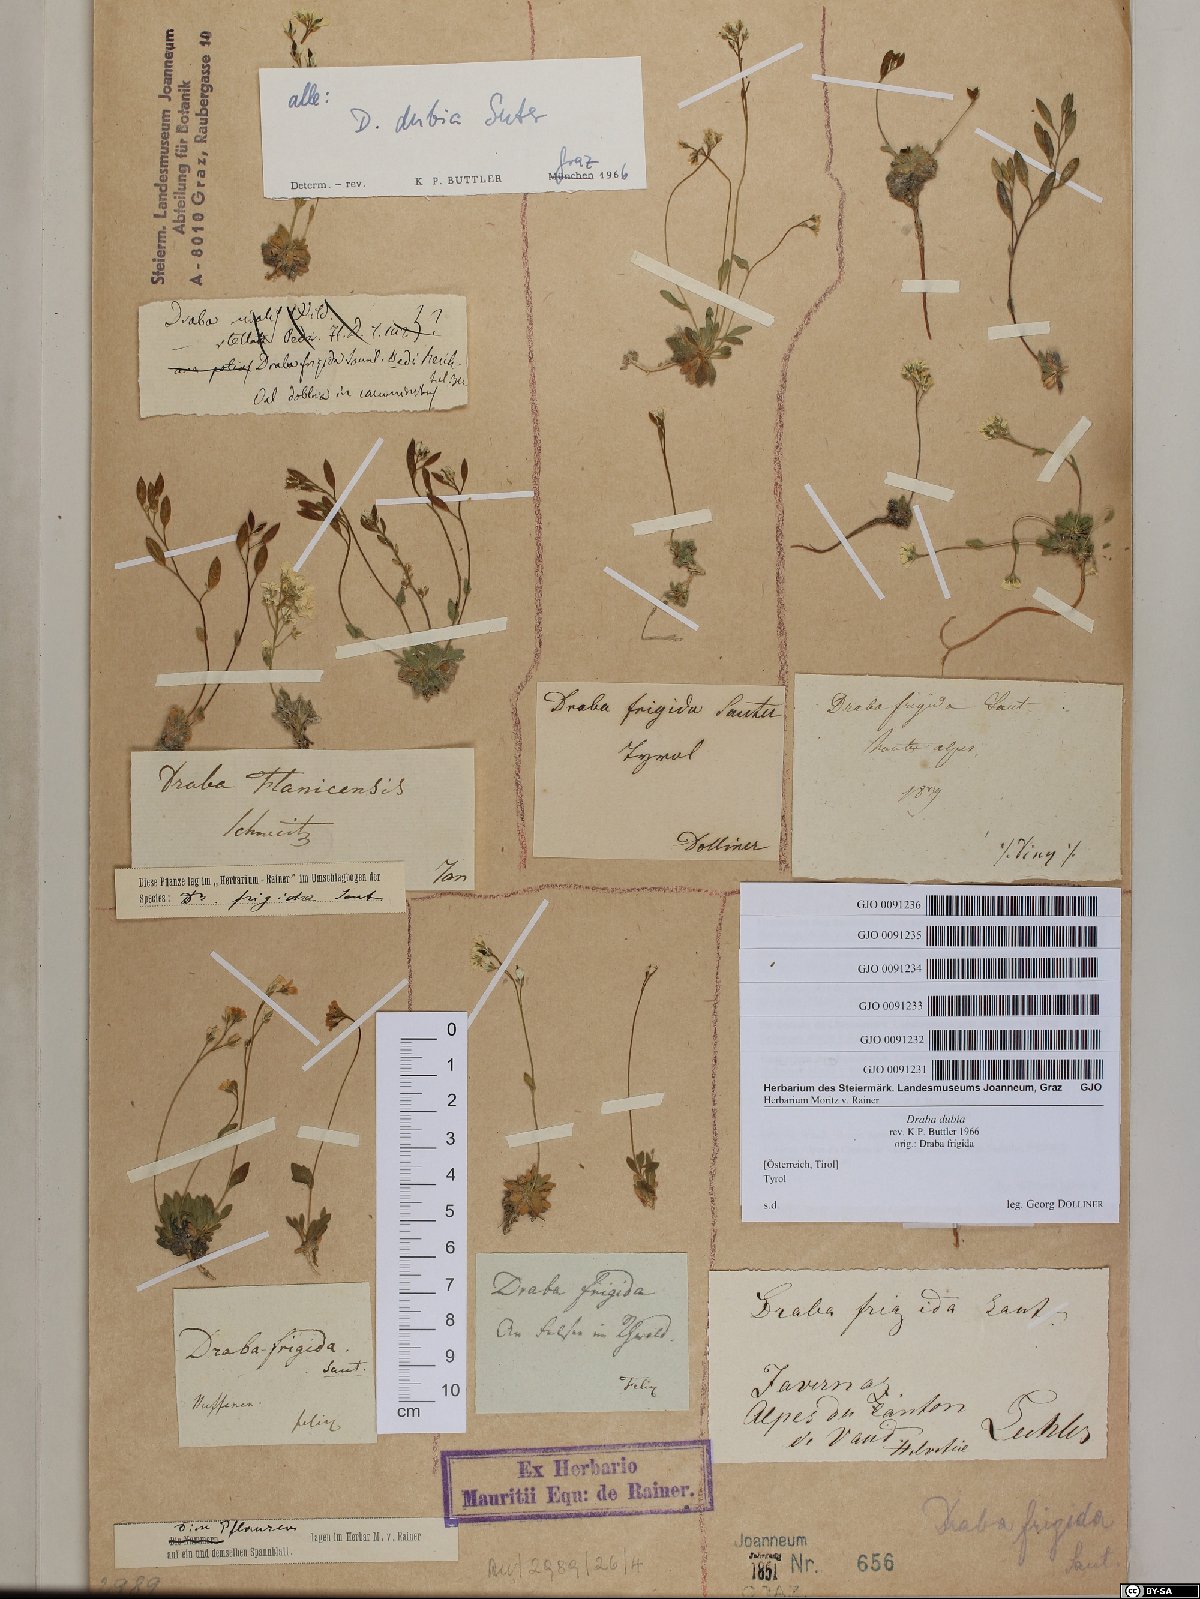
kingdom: Plantae
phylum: Tracheophyta
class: Magnoliopsida
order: Brassicales
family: Brassicaceae
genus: Draba
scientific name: Draba dubia
